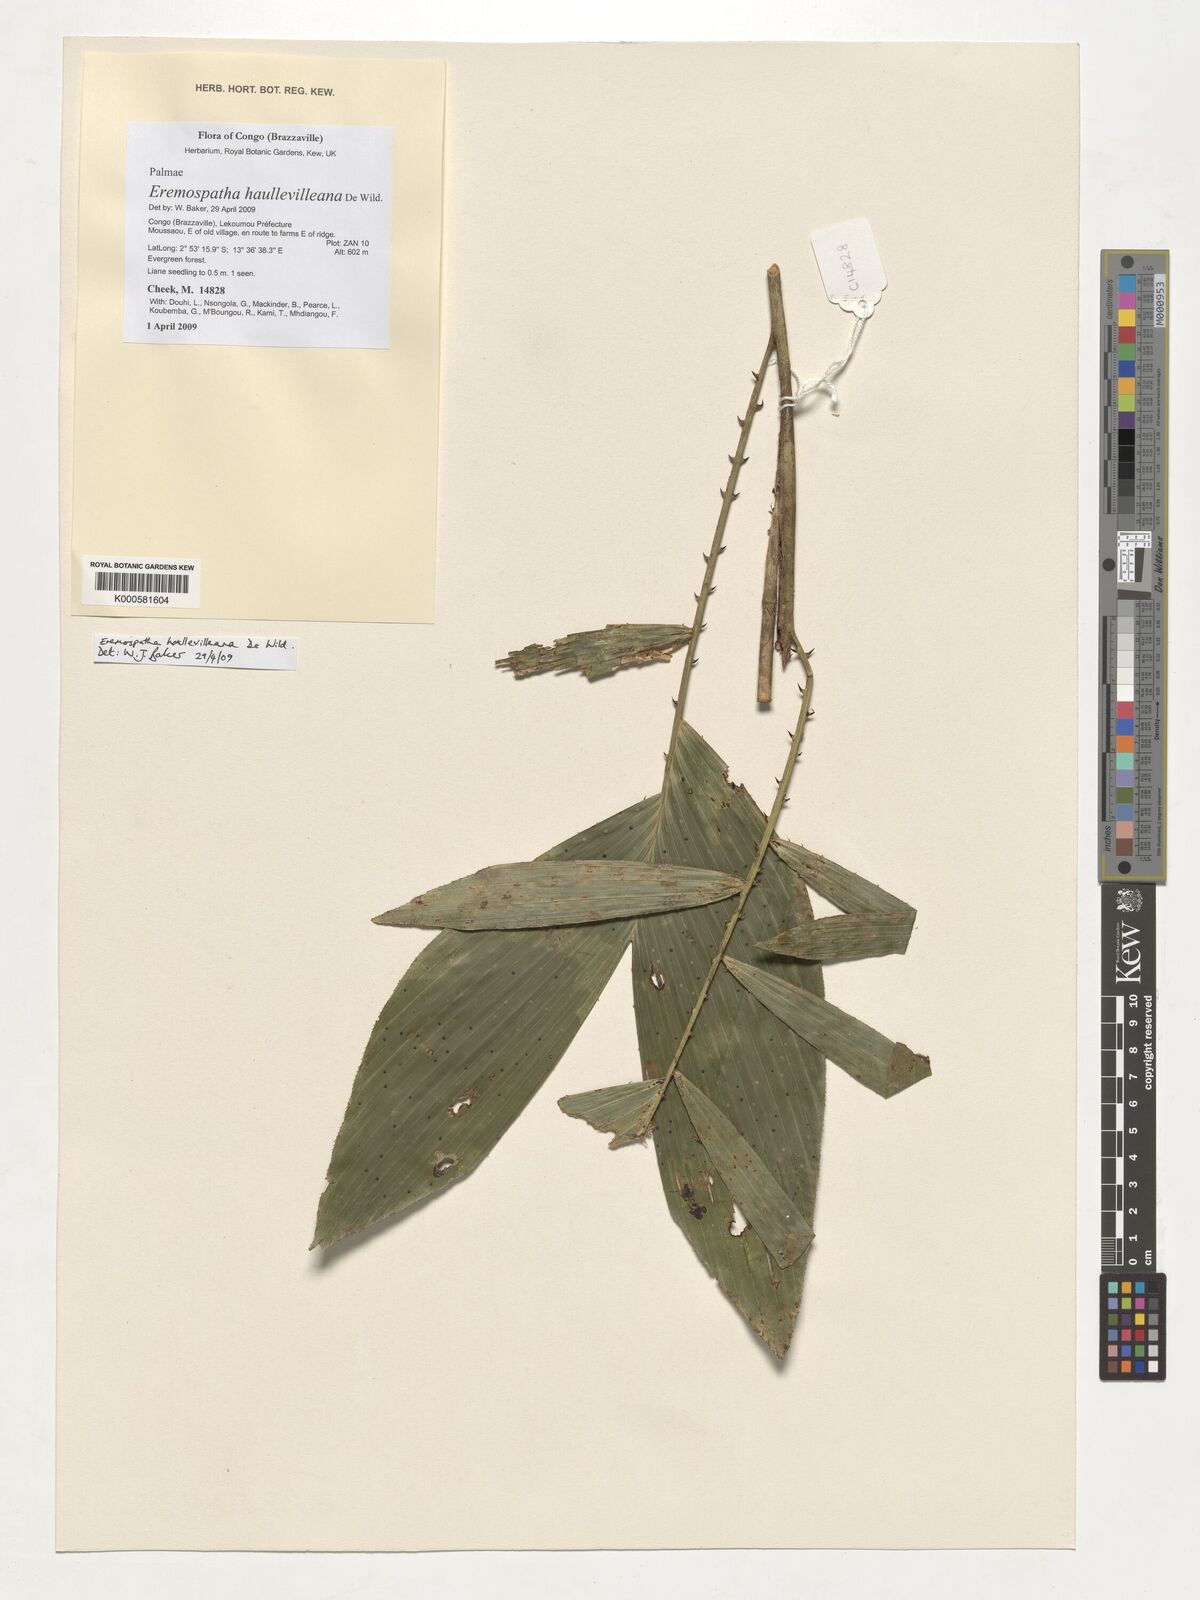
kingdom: Plantae
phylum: Tracheophyta
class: Liliopsida
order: Arecales
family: Arecaceae
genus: Eremospatha
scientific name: Eremospatha haullevilleana
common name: Rattan
